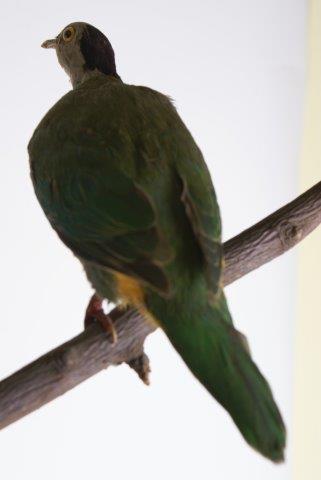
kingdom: Animalia
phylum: Chordata
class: Aves
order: Columbiformes
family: Columbidae
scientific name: Columbidae
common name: Zwartnekjufferduif
